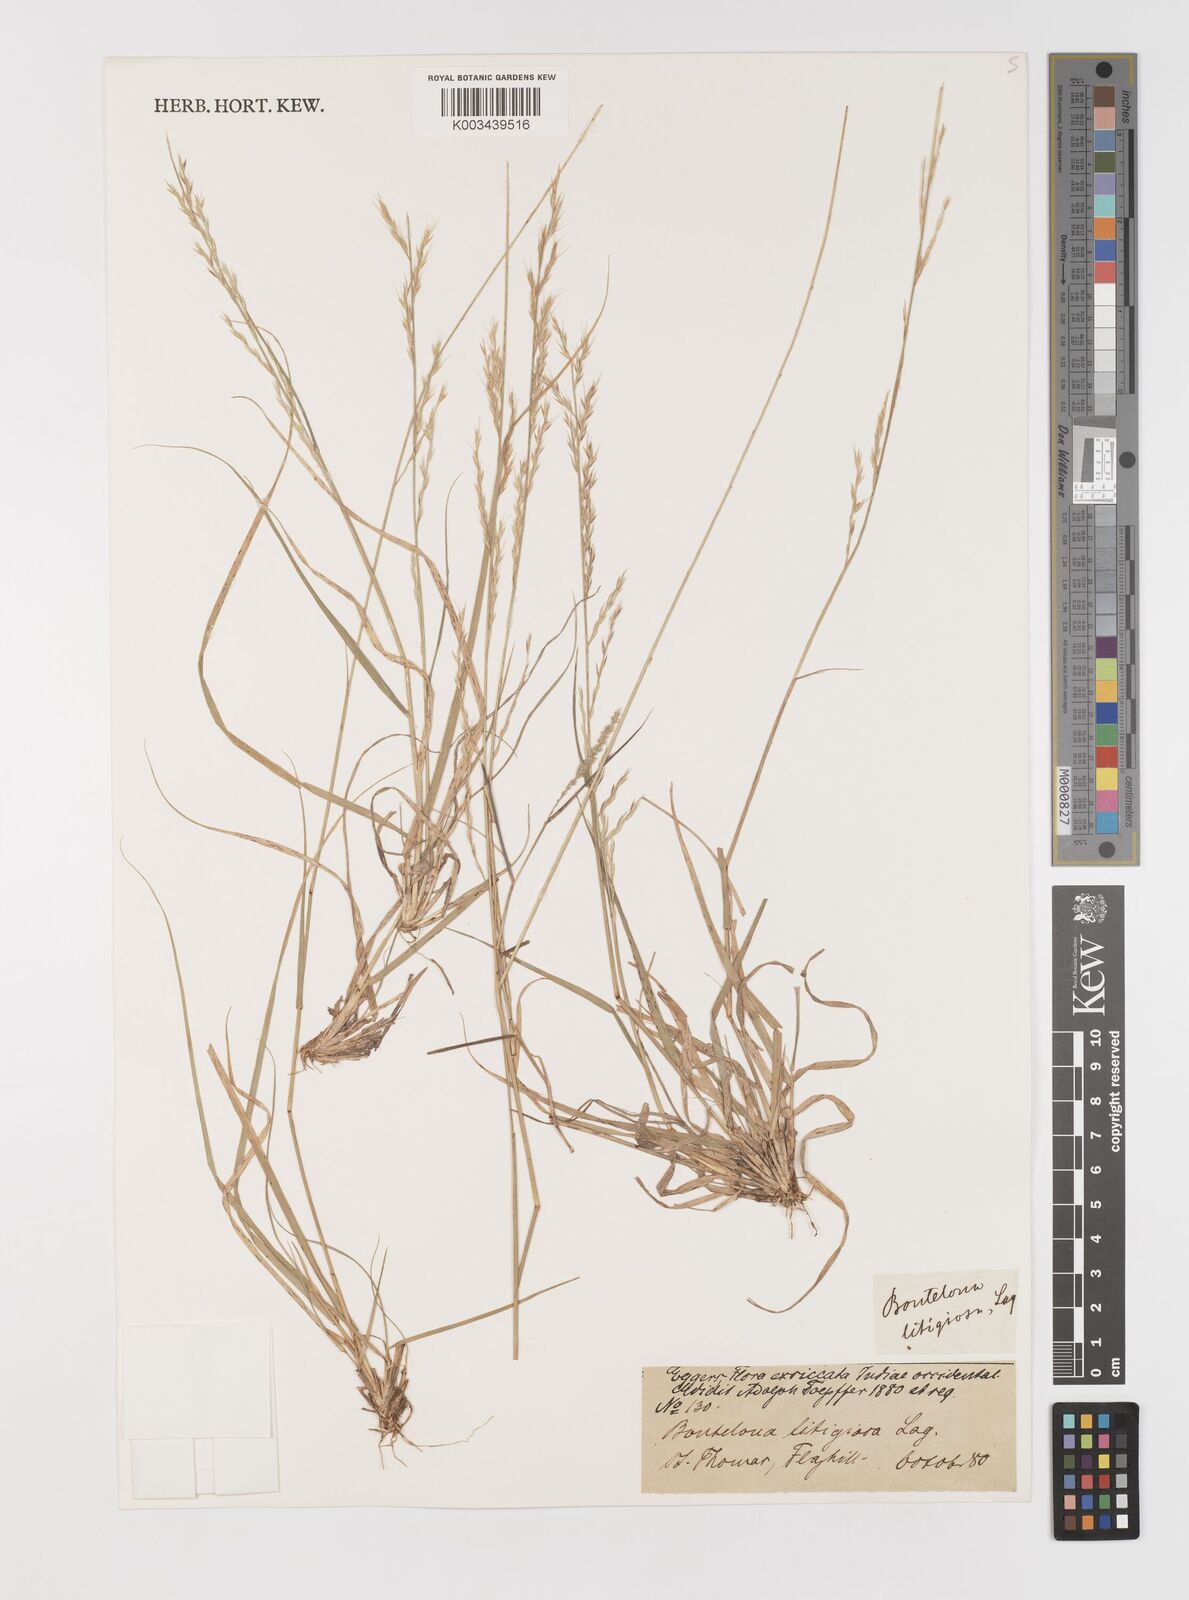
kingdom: Plantae
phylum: Tracheophyta
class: Liliopsida
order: Poales
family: Poaceae
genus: Bouteloua
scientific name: Bouteloua americana
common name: Mule grass
